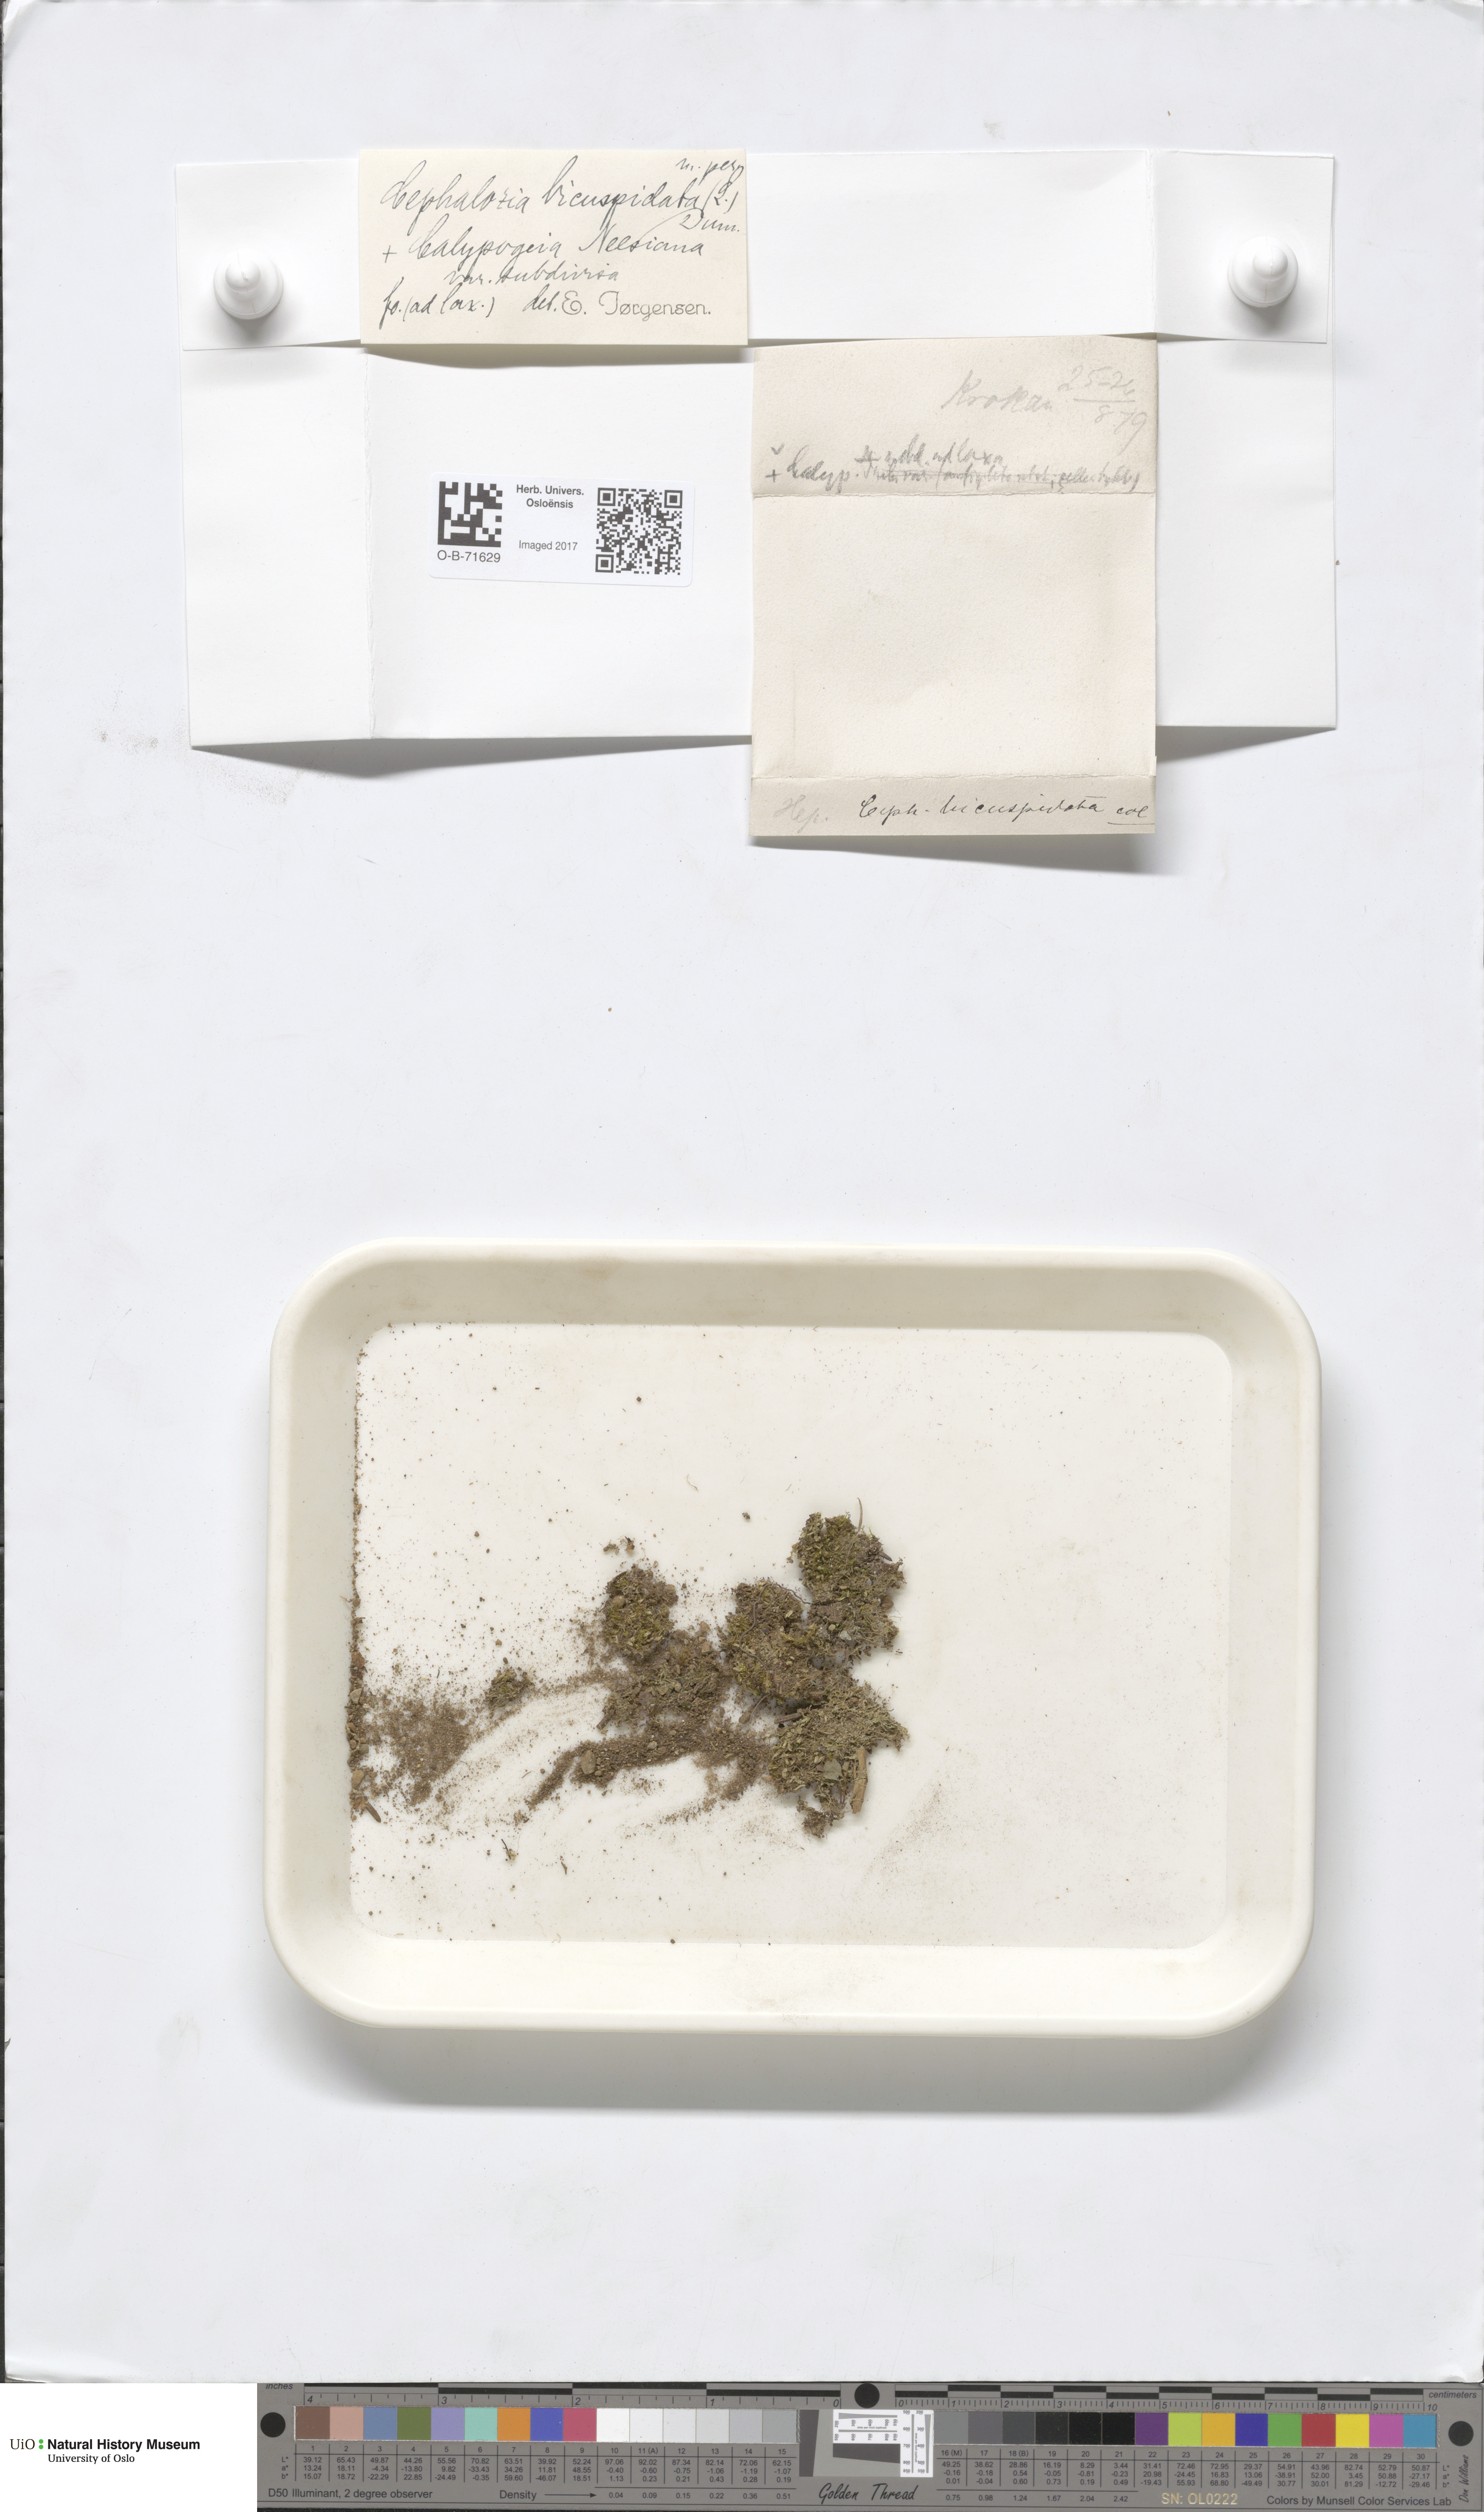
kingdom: Plantae
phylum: Marchantiophyta
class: Jungermanniopsida
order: Jungermanniales
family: Cephaloziaceae
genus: Cephalozia
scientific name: Cephalozia bicuspidata
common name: Two-horned pincerwort
